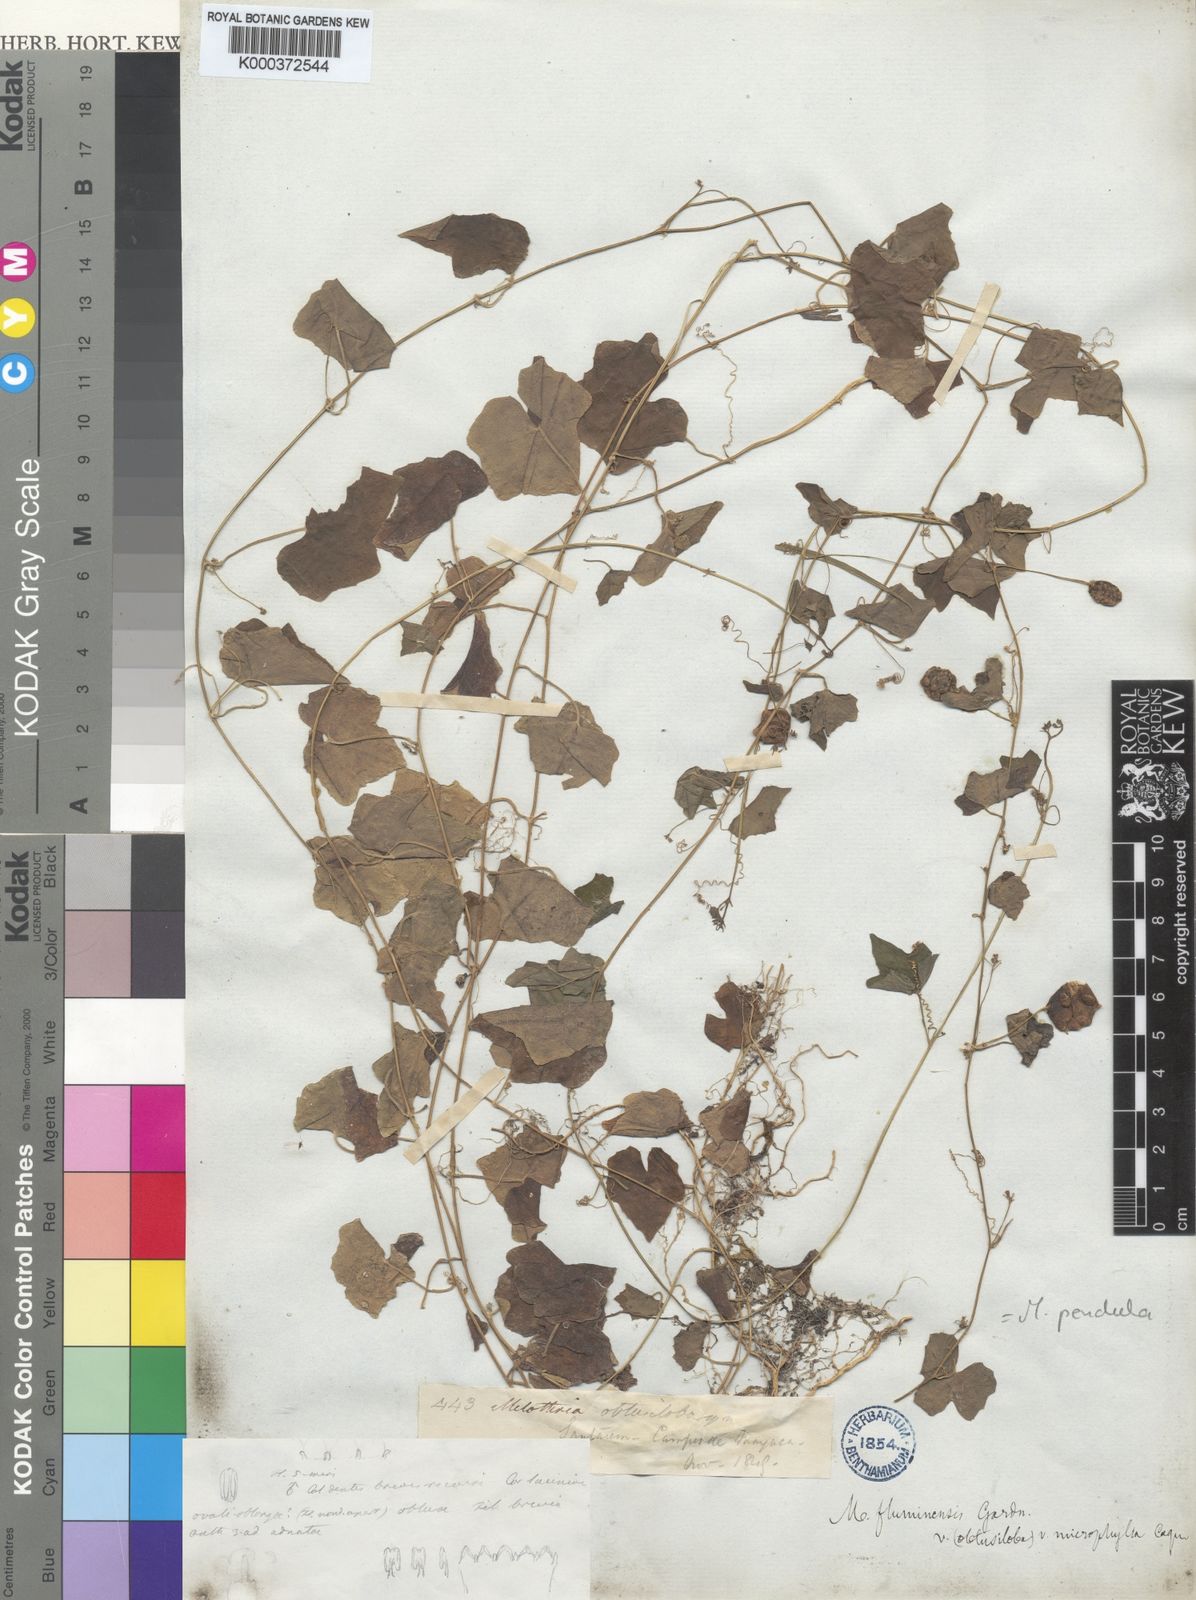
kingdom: Plantae
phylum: Tracheophyta
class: Magnoliopsida
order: Cucurbitales
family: Cucurbitaceae
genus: Melothria
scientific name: Melothria pendula
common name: Creeping-cucumber
